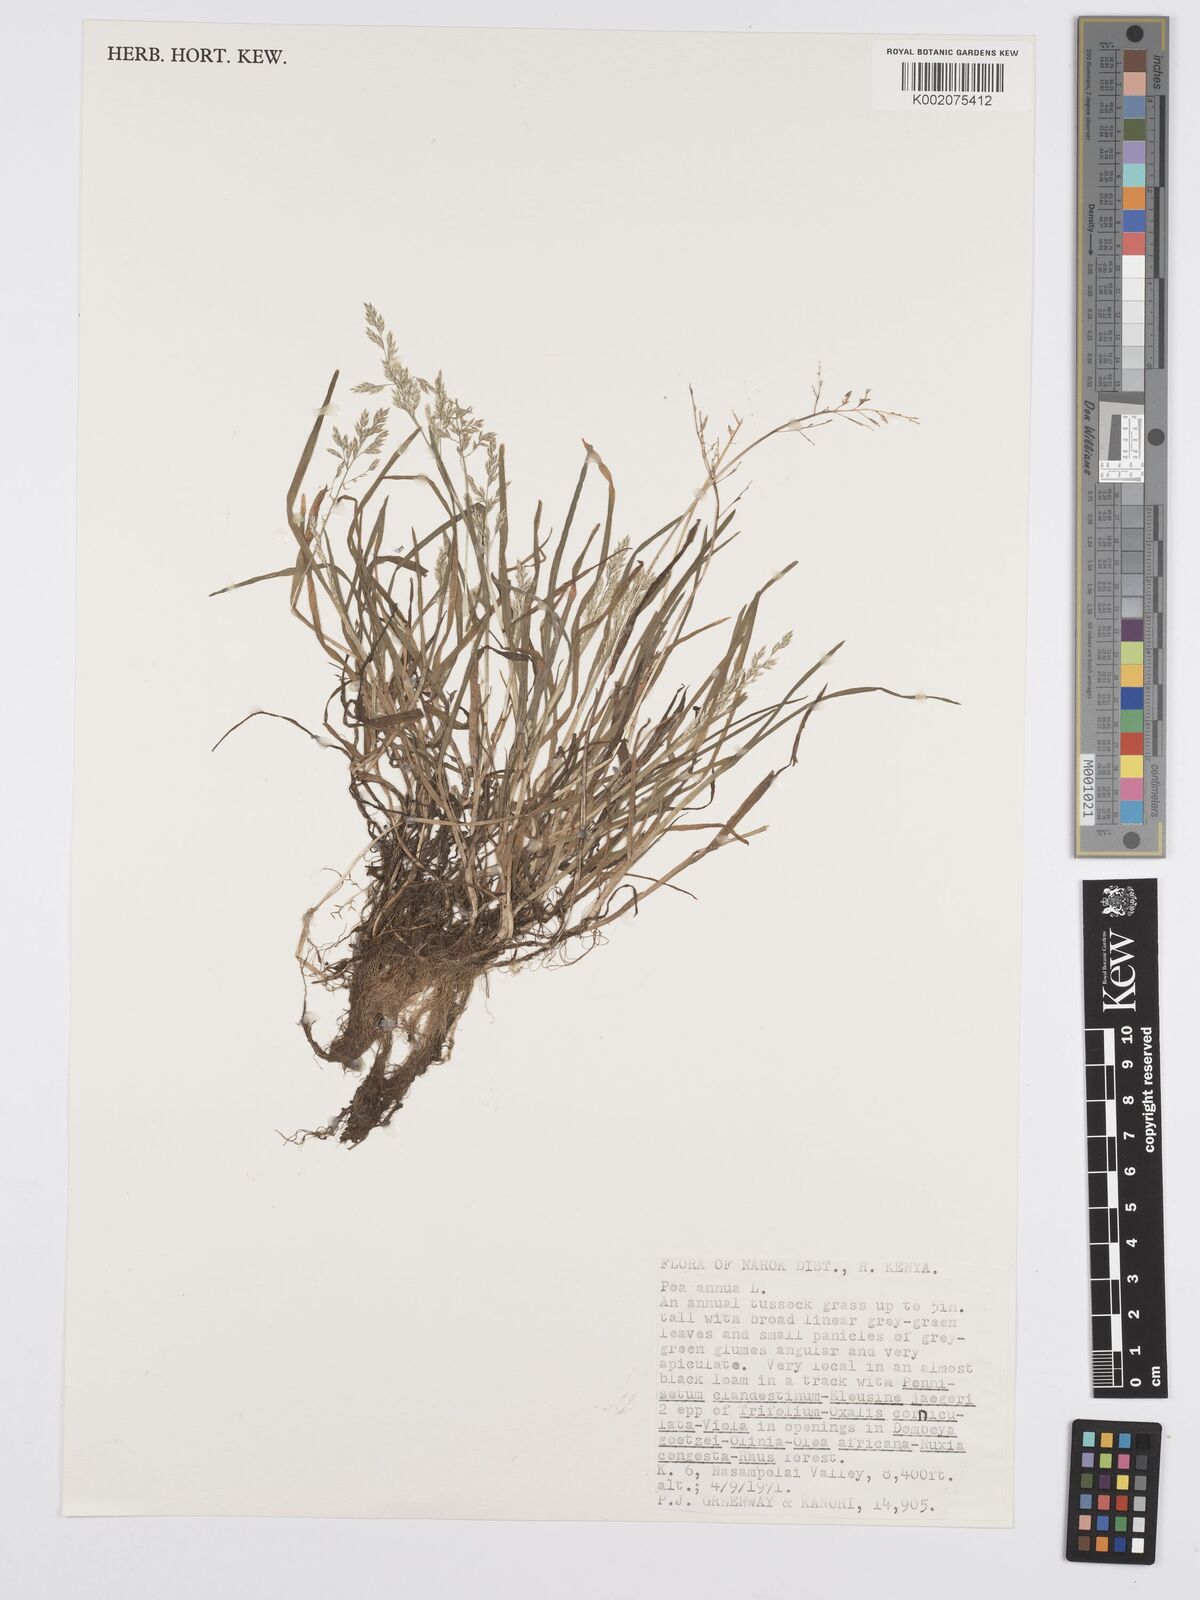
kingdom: Plantae
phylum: Tracheophyta
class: Liliopsida
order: Poales
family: Poaceae
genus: Poa
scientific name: Poa annua
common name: Annual bluegrass
